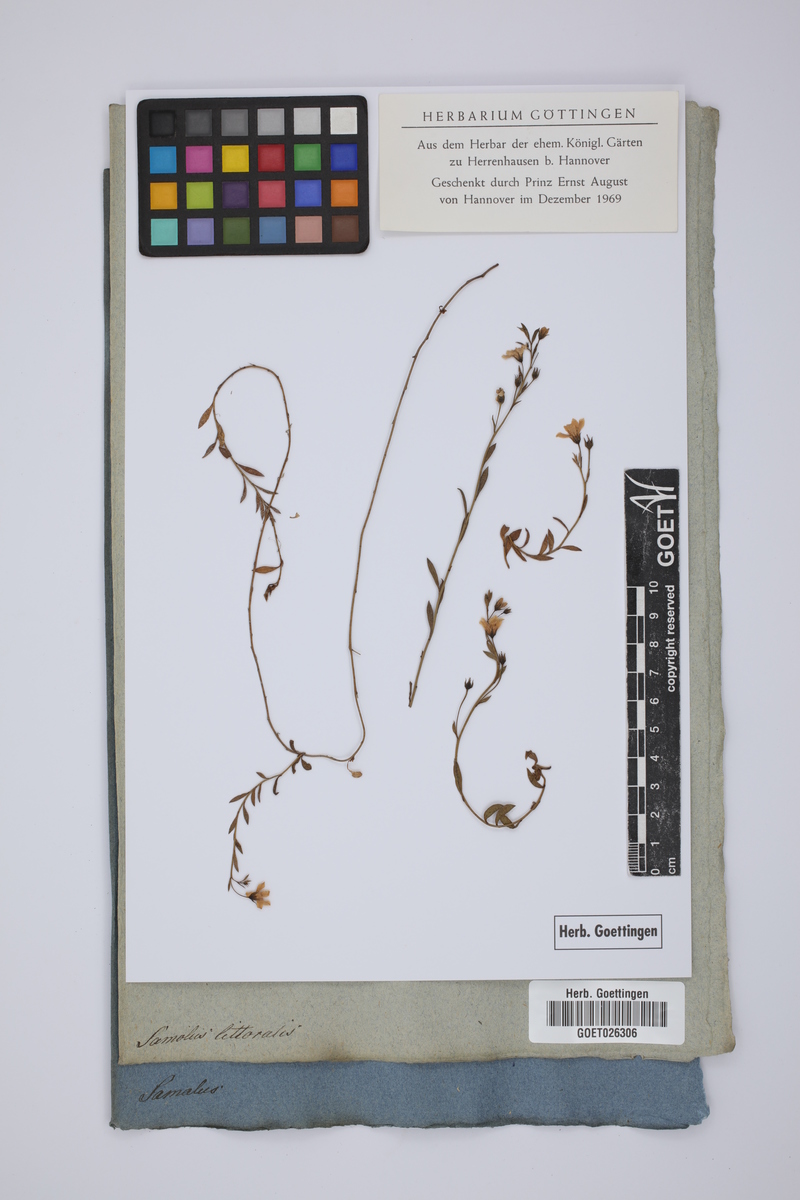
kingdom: Plantae
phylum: Tracheophyta
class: Magnoliopsida
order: Ericales
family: Primulaceae
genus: Samolus
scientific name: Samolus repens
